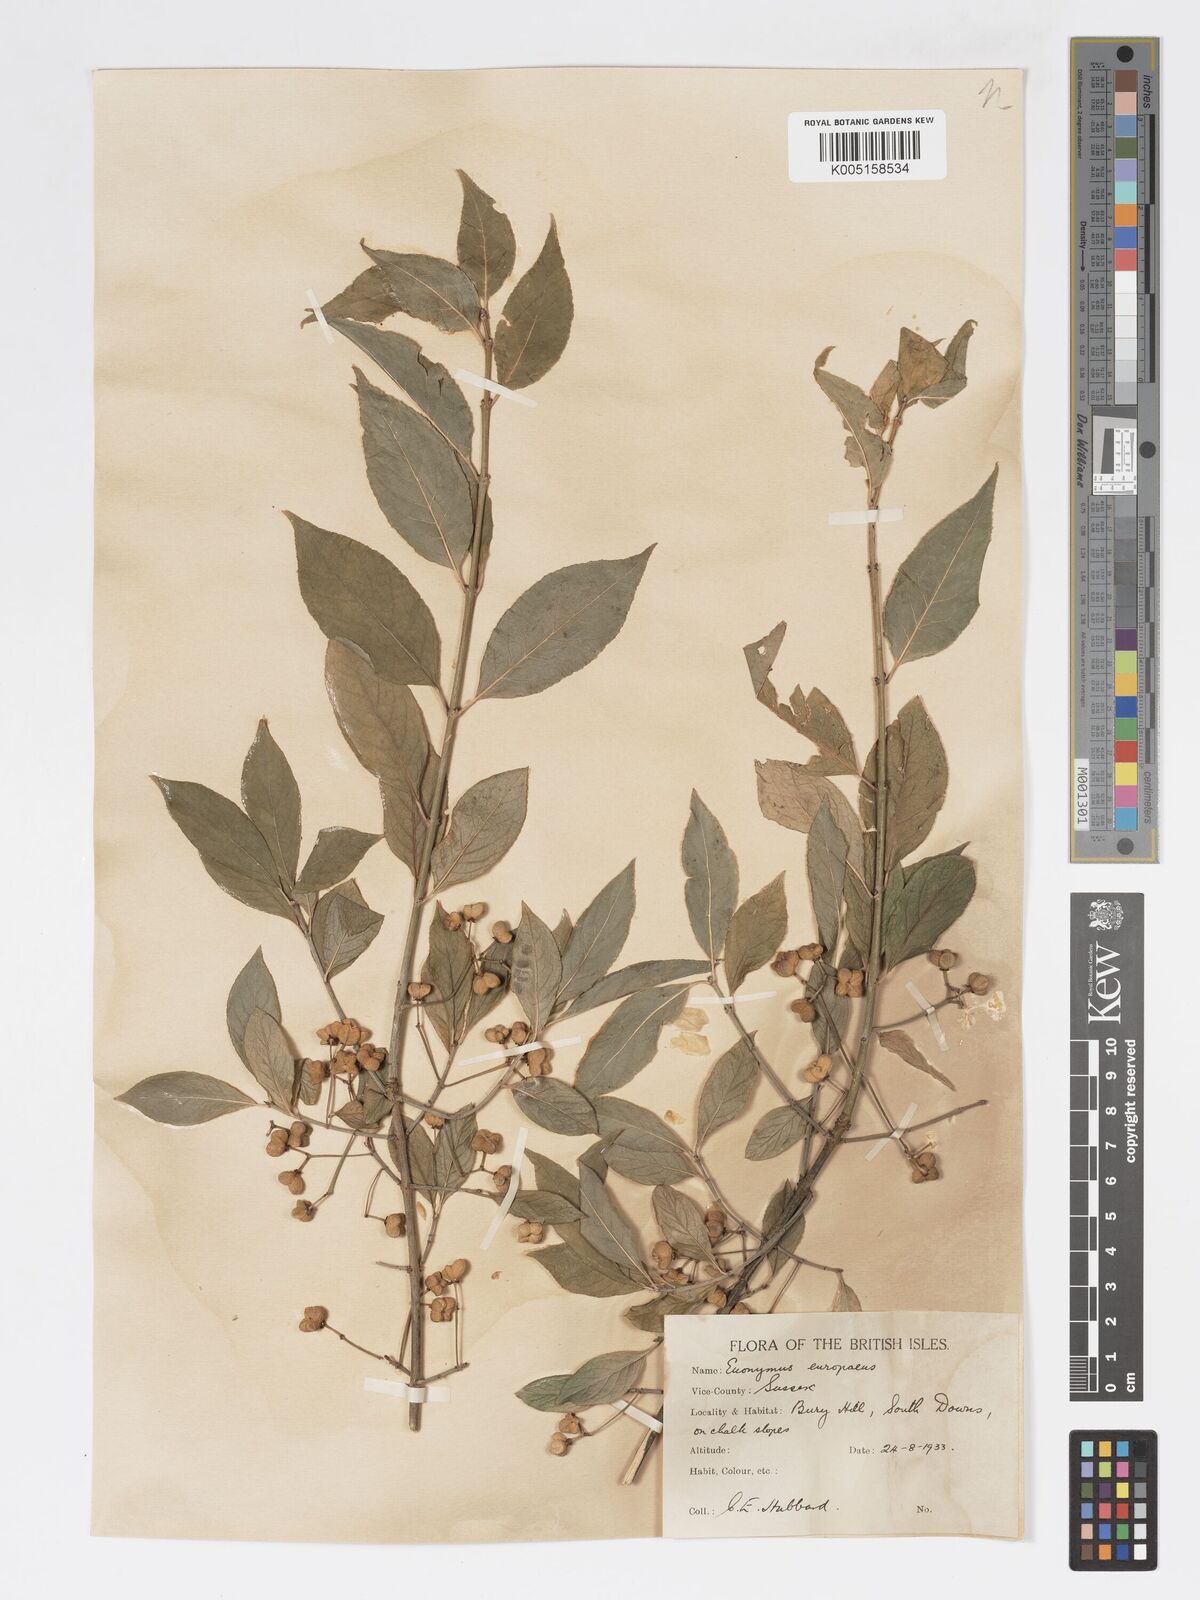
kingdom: Plantae
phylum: Tracheophyta
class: Magnoliopsida
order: Celastrales
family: Celastraceae
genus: Euonymus
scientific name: Euonymus europaeus
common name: Spindle
